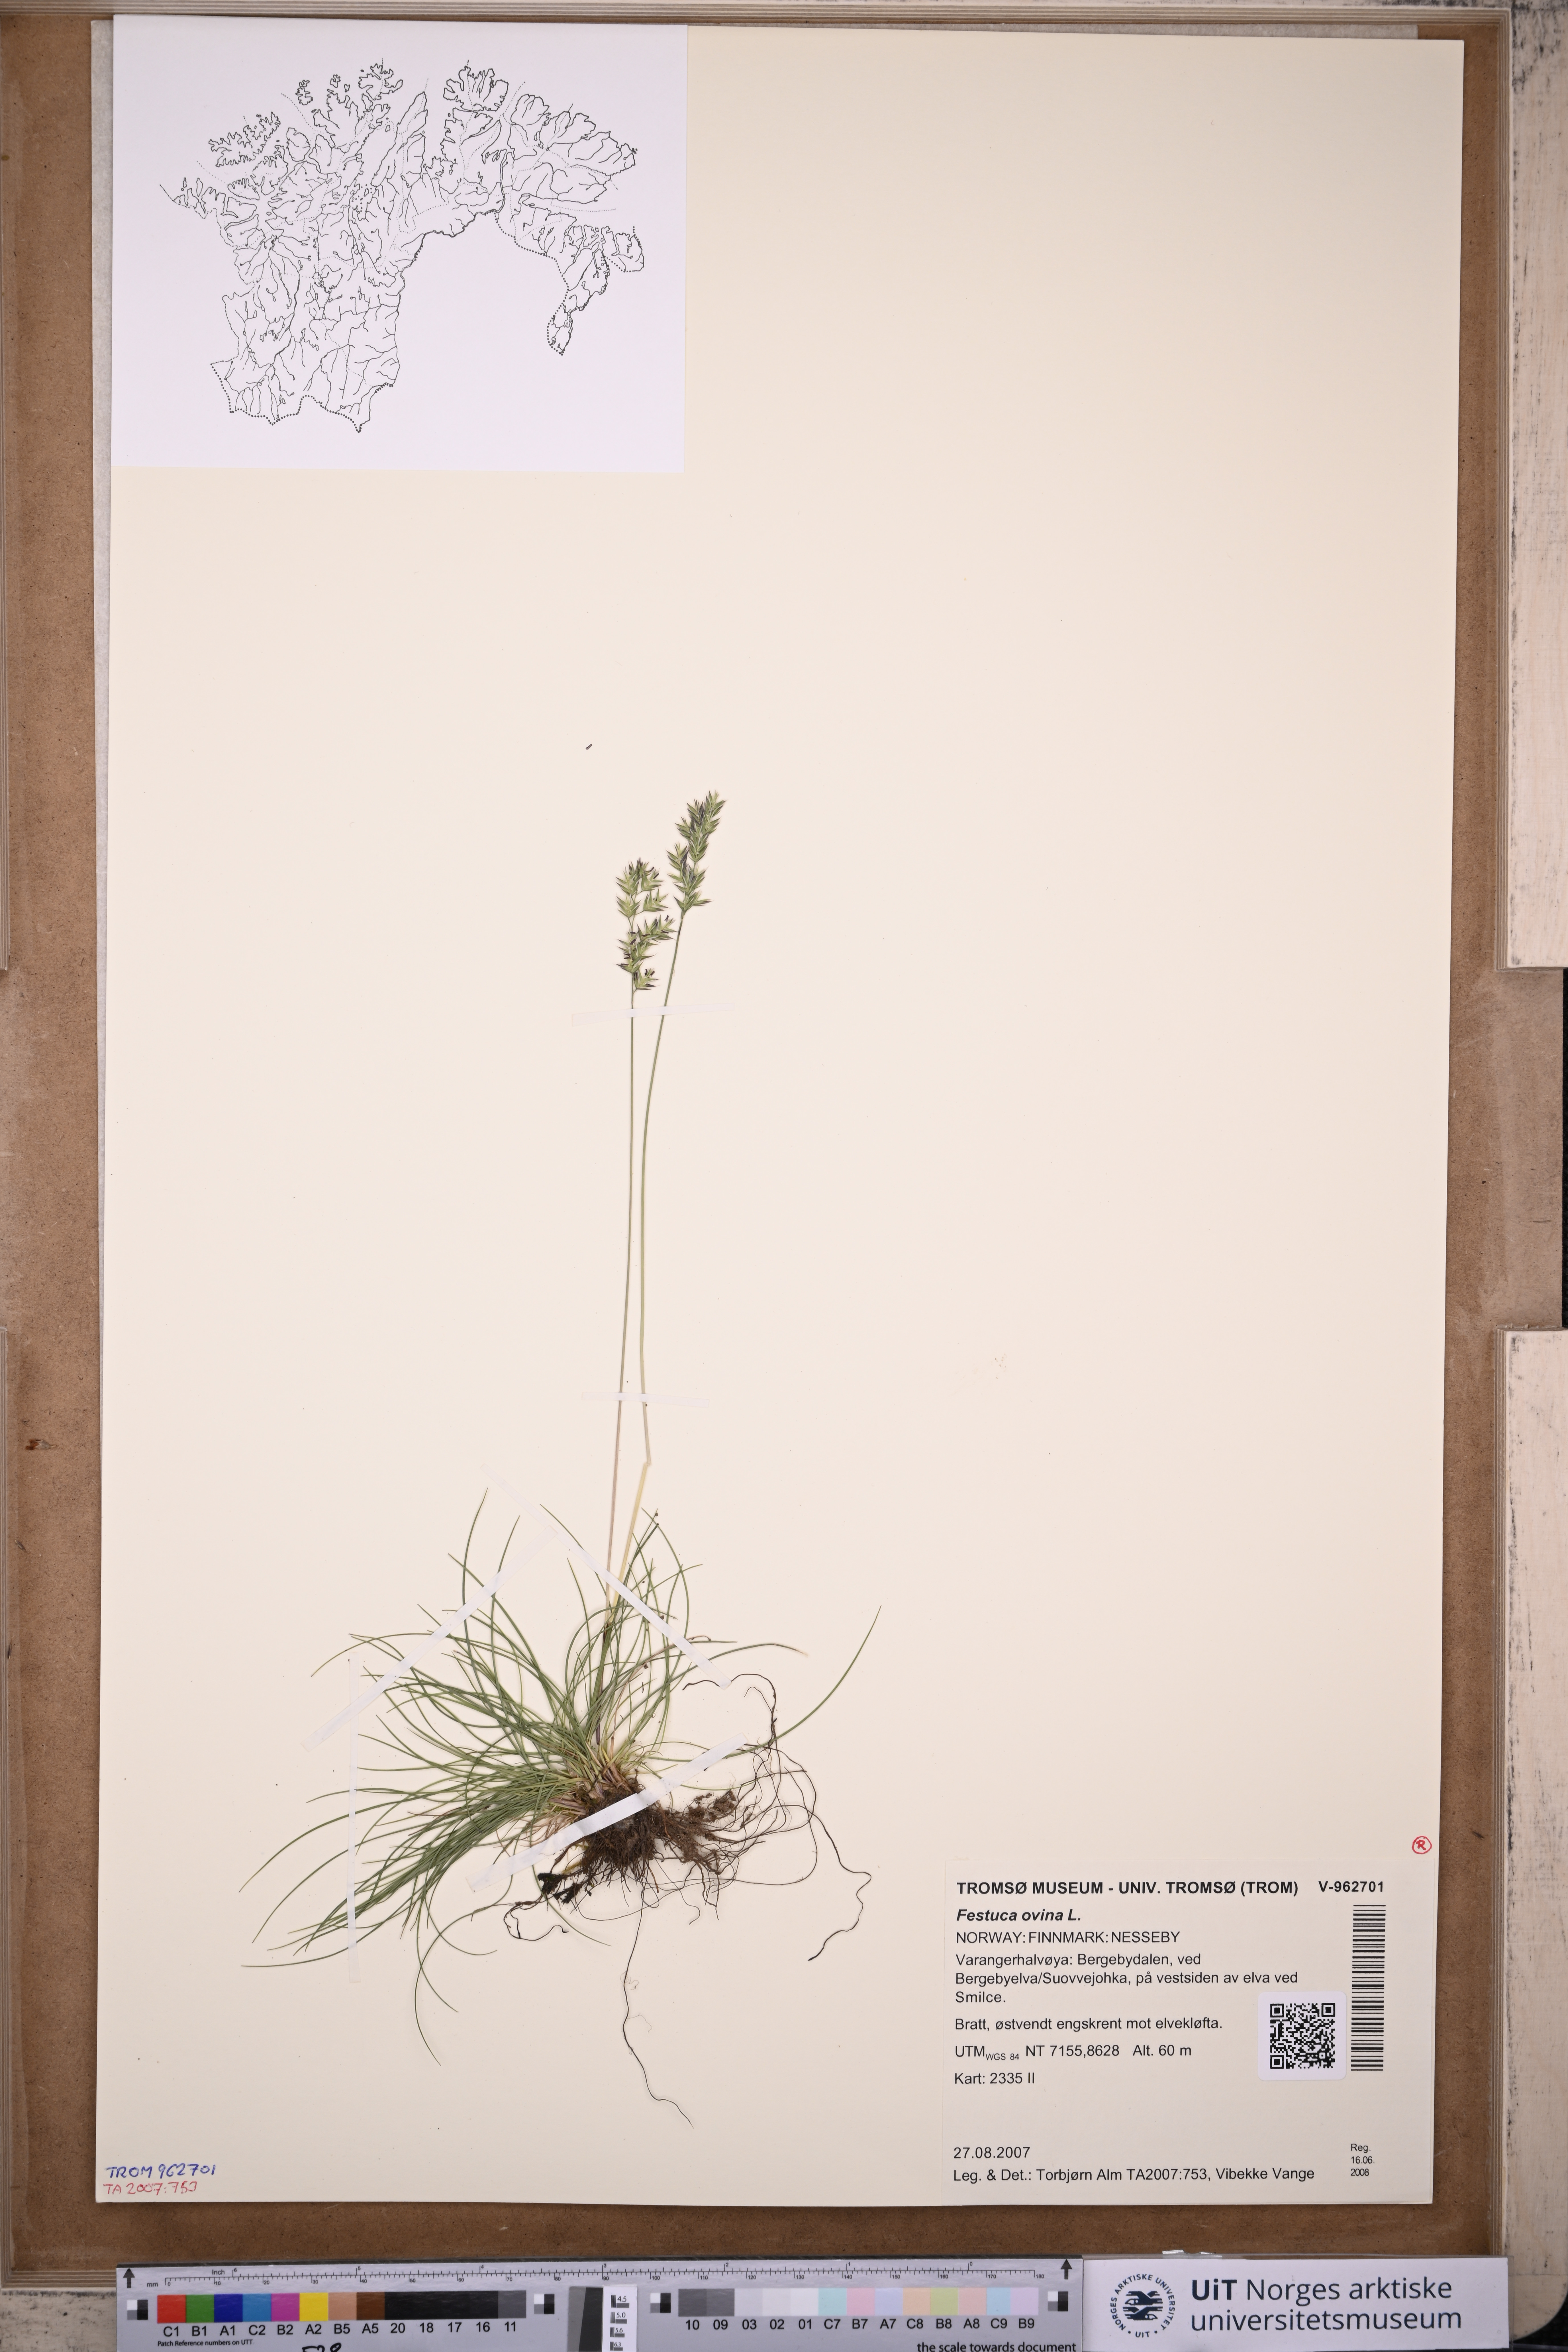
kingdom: Plantae
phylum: Tracheophyta
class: Liliopsida
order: Poales
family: Poaceae
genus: Festuca
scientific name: Festuca ovina
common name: Sheep fescue
